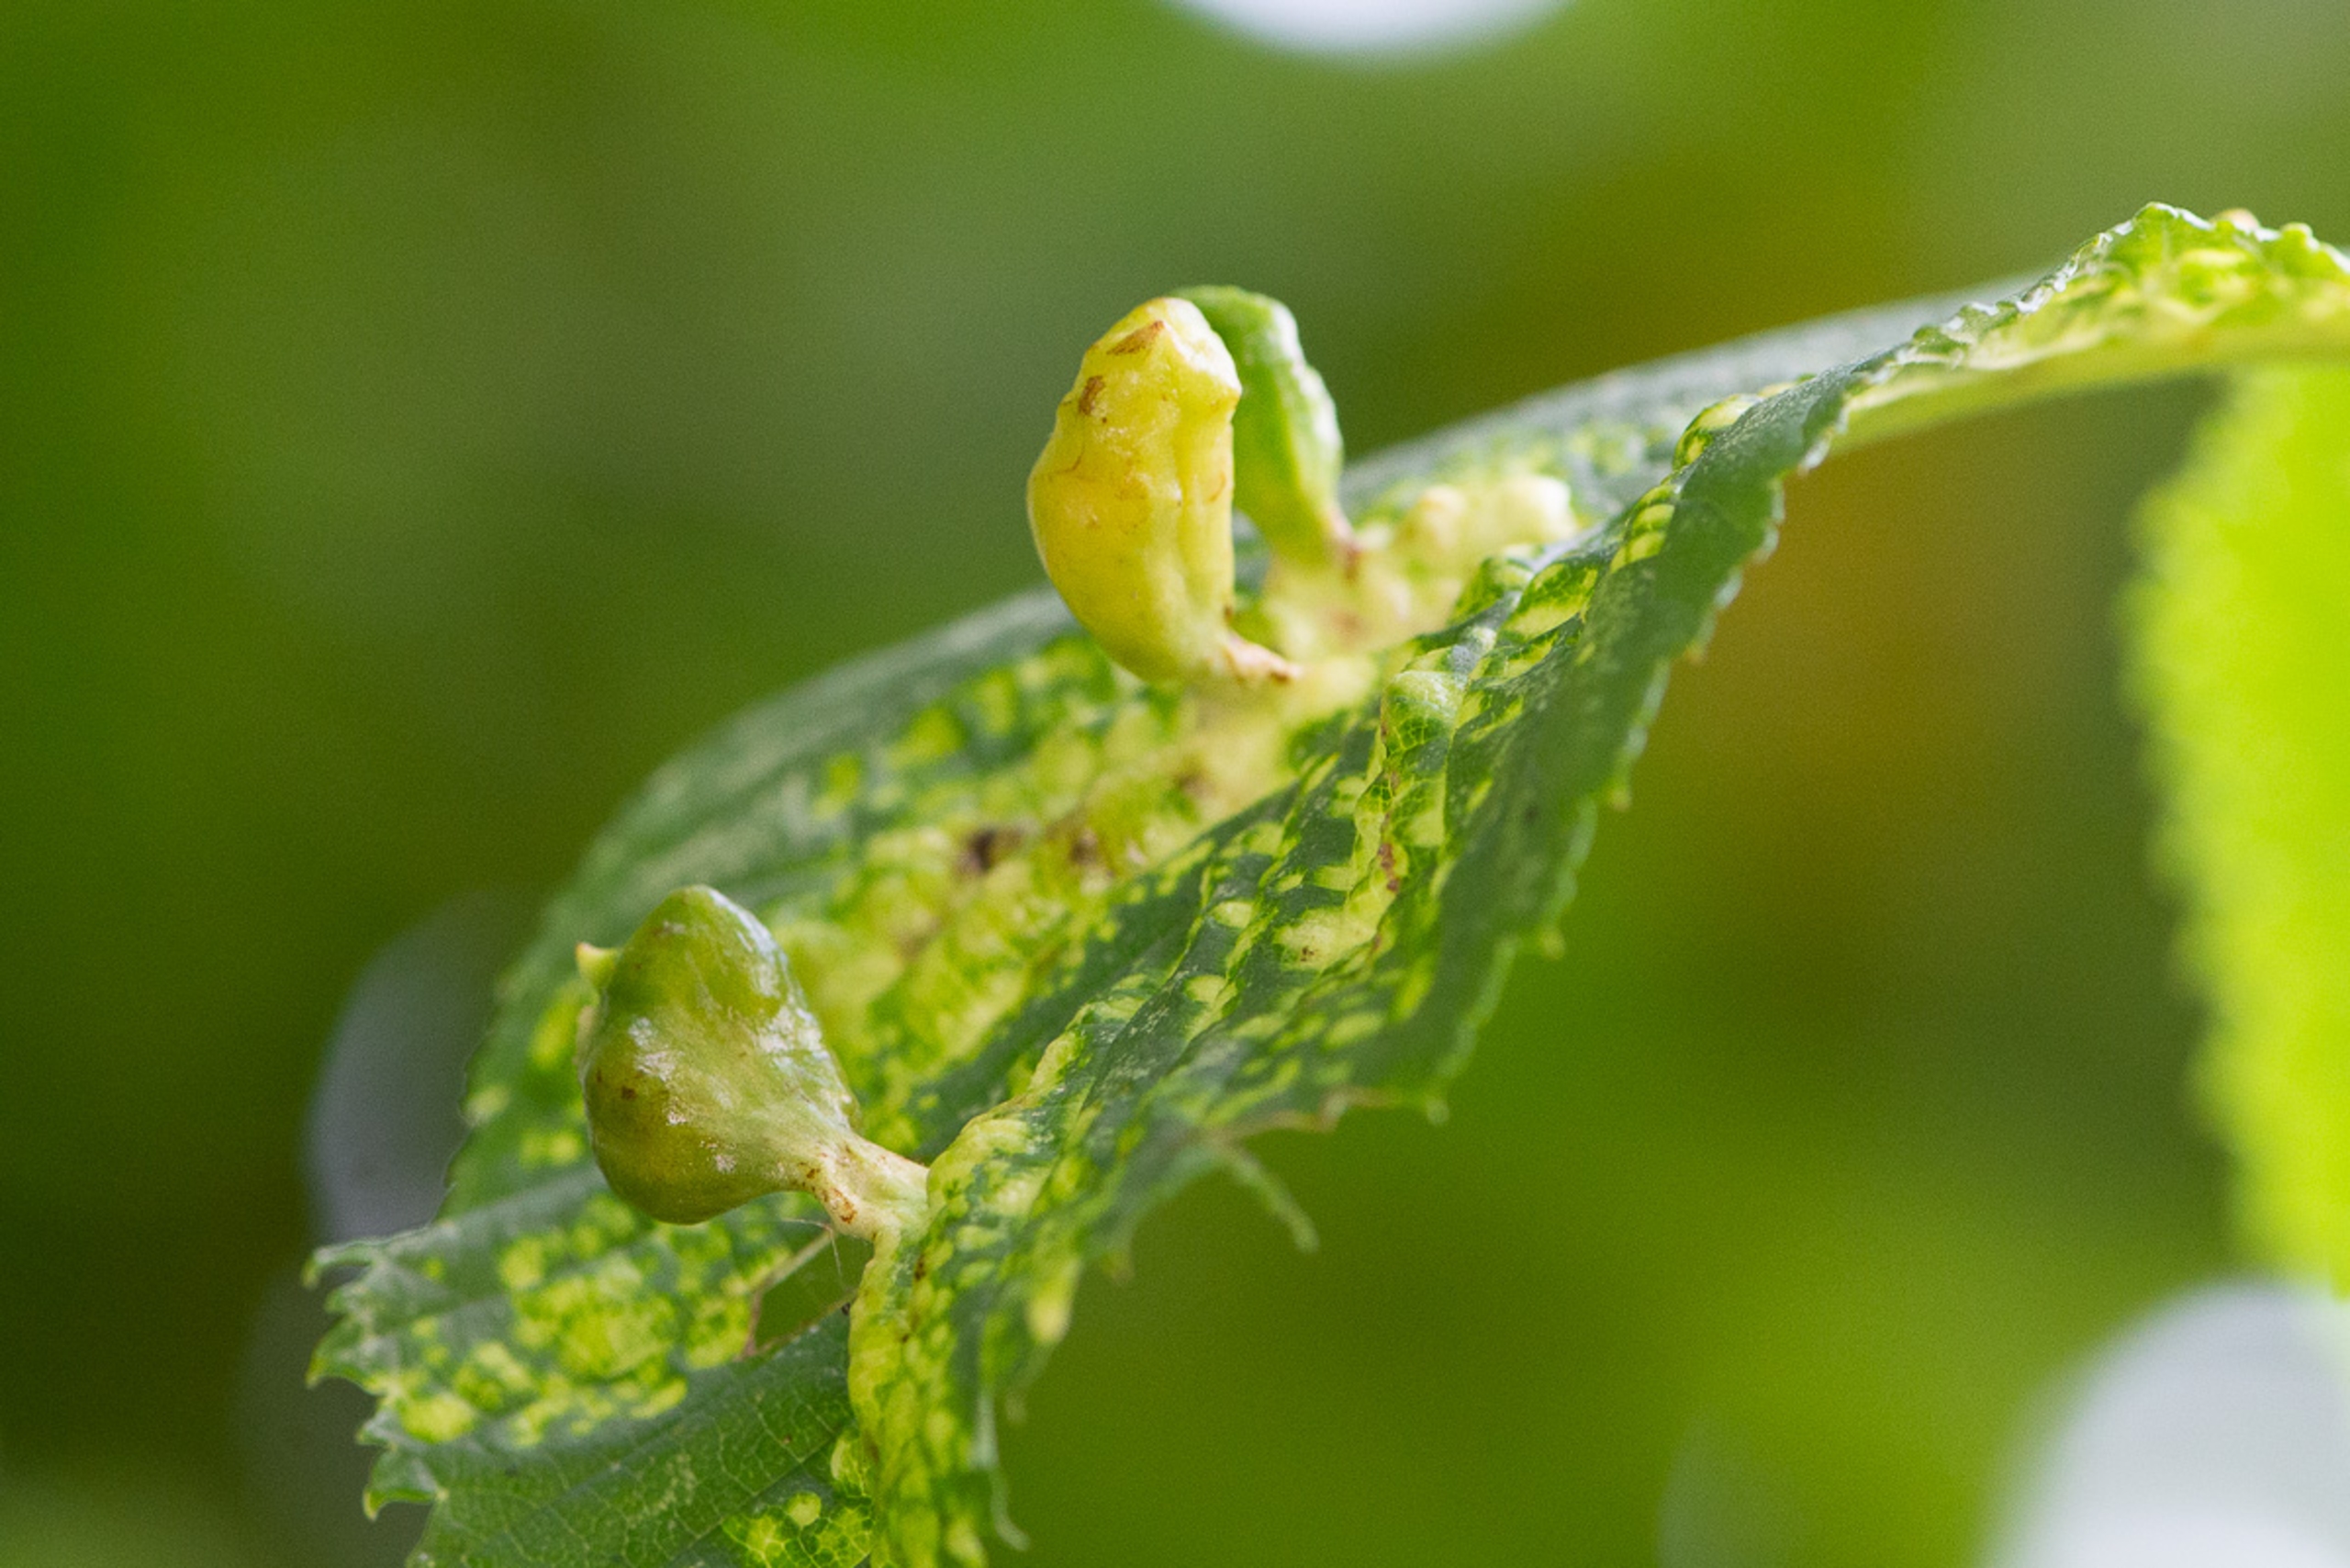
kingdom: Animalia
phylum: Arthropoda
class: Insecta
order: Hemiptera
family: Aphididae
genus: Tetraneura
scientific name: Tetraneura ulmi
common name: Elmegallelus
